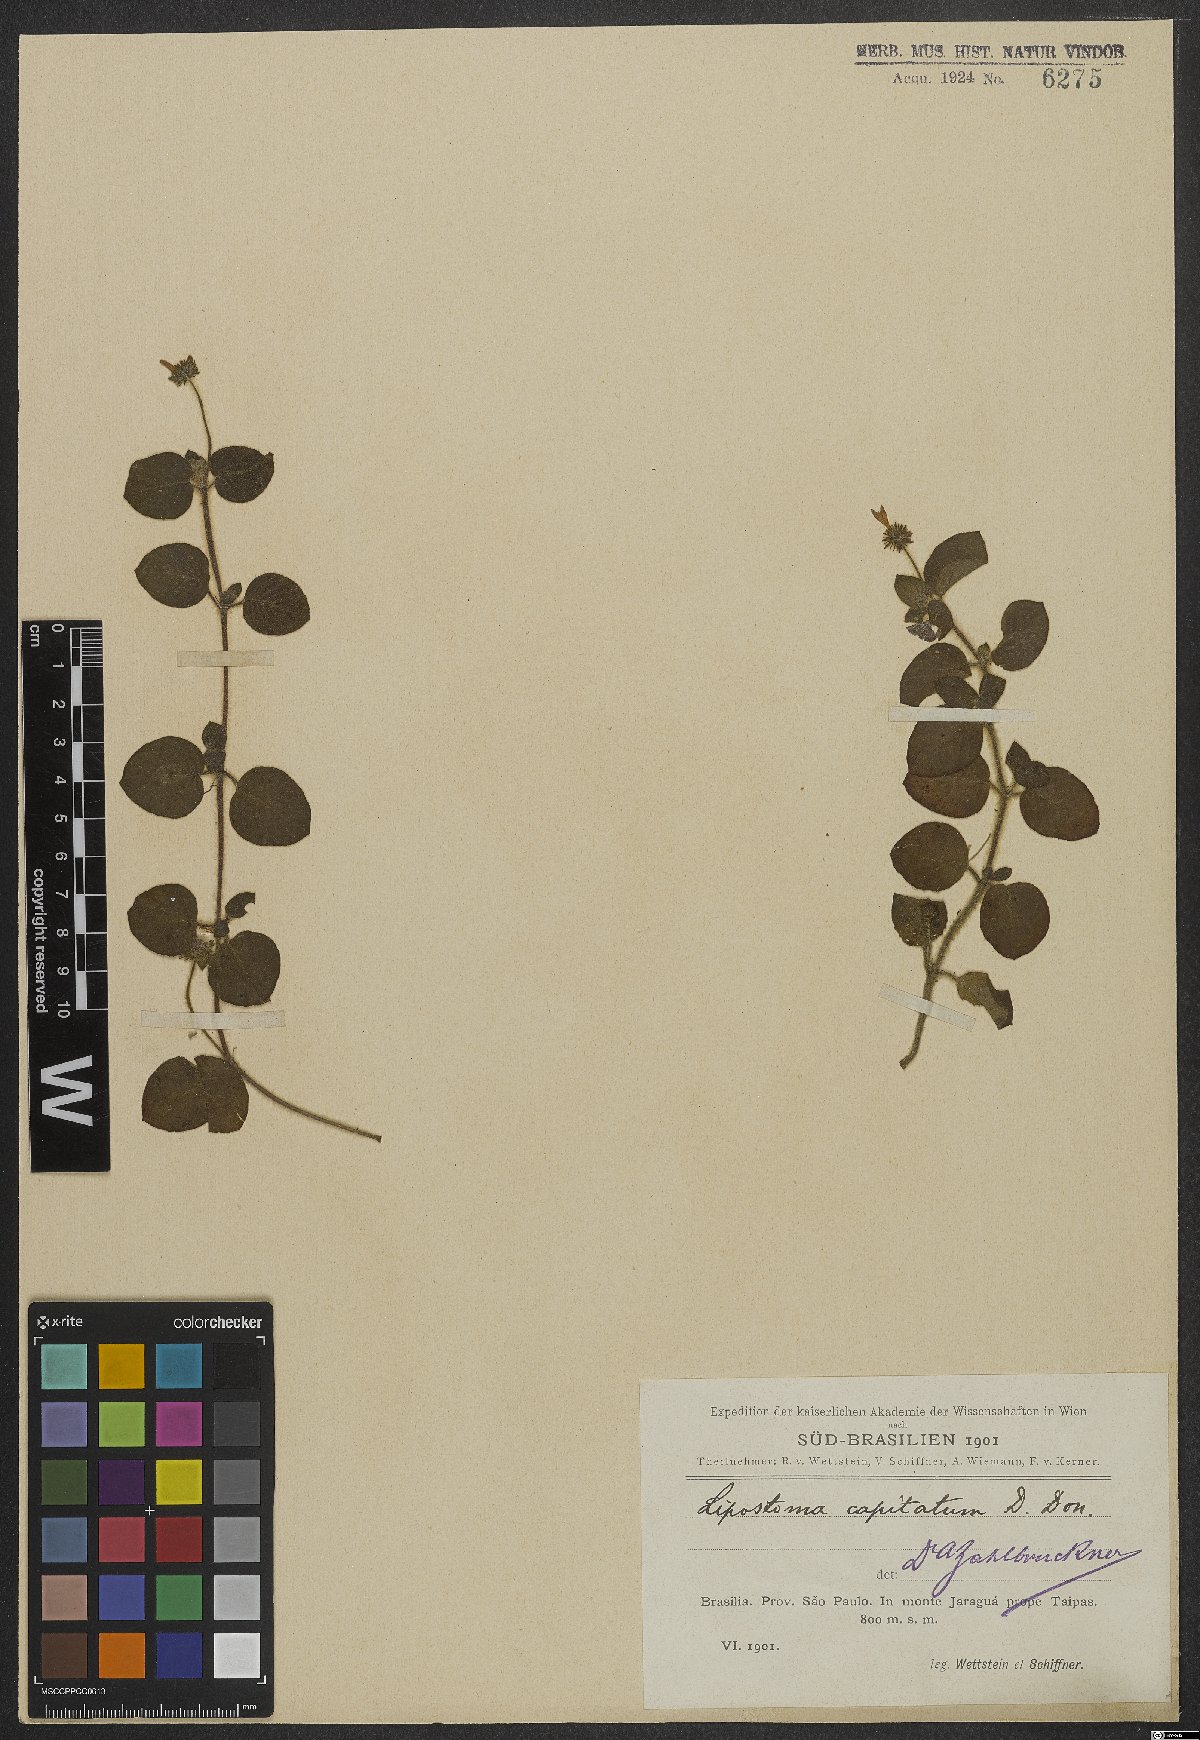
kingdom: Plantae
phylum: Tracheophyta
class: Magnoliopsida
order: Gentianales
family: Rubiaceae
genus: Coccocypselum
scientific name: Coccocypselum capitatum
